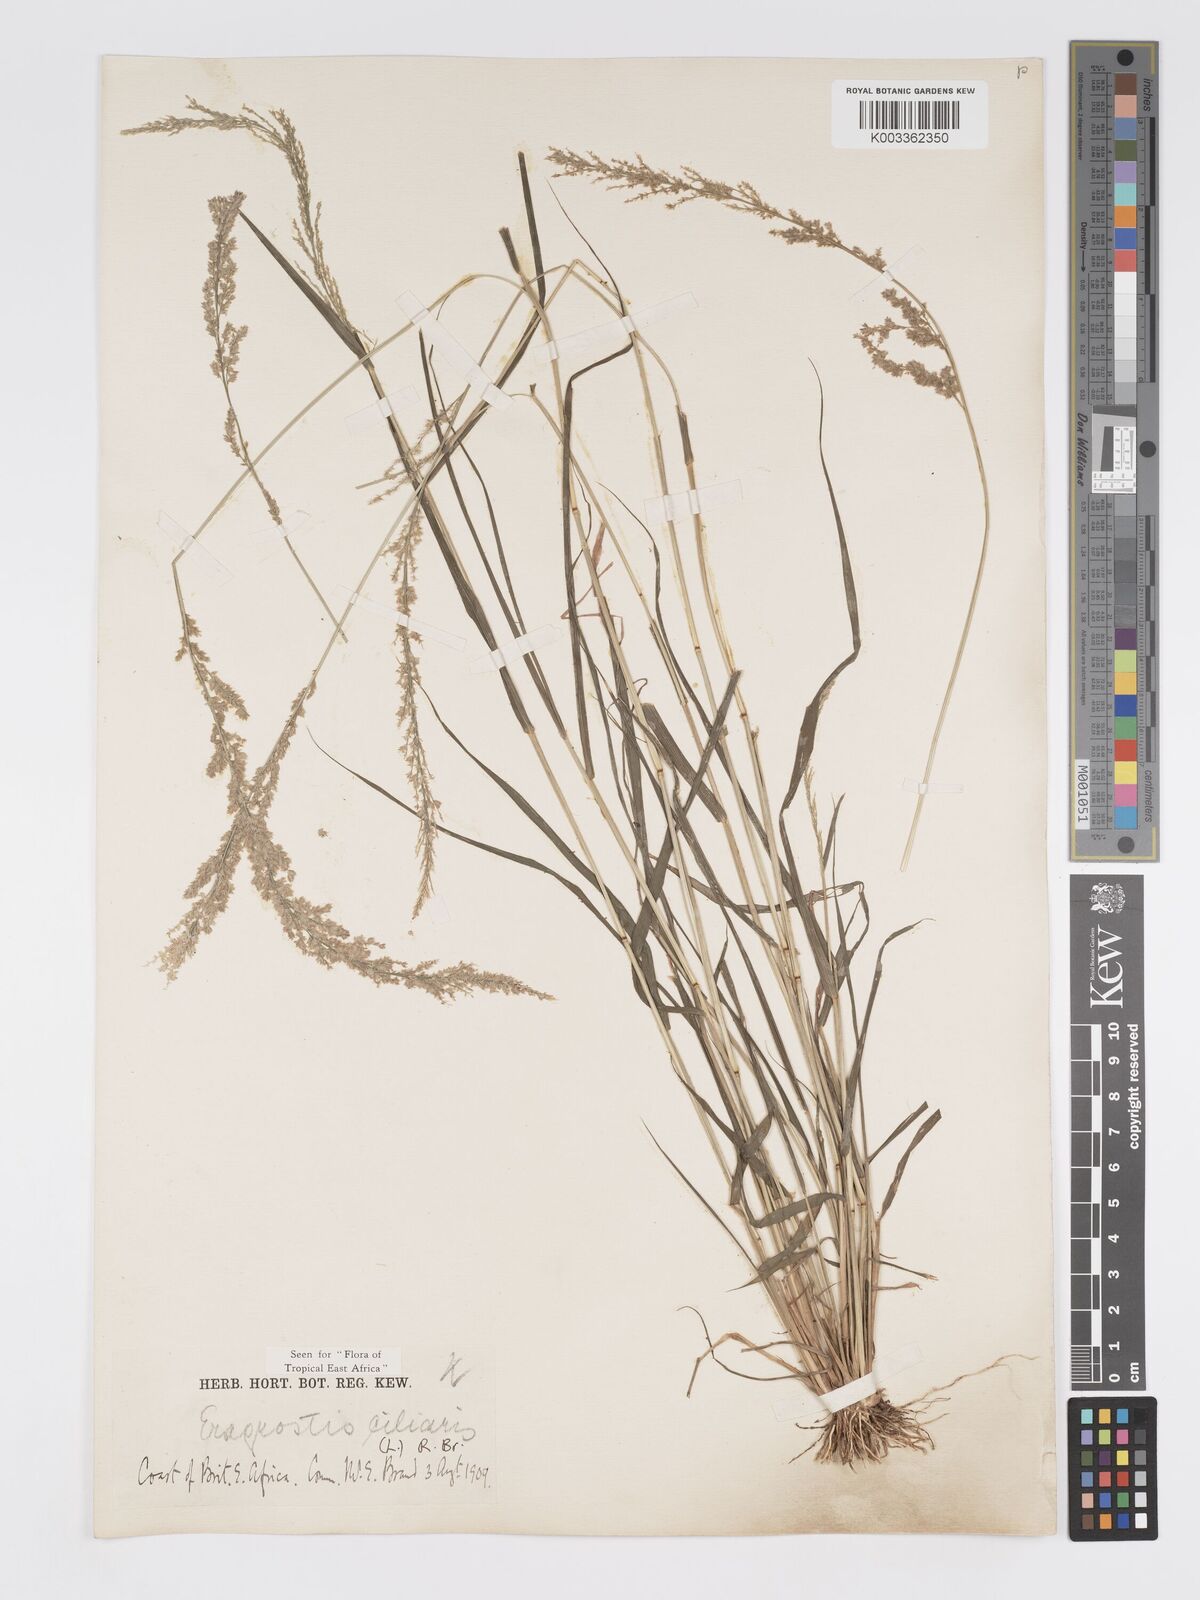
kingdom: Plantae
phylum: Tracheophyta
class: Liliopsida
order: Poales
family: Poaceae
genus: Eragrostis
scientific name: Eragrostis ciliaris
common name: Gophertail lovegrass
